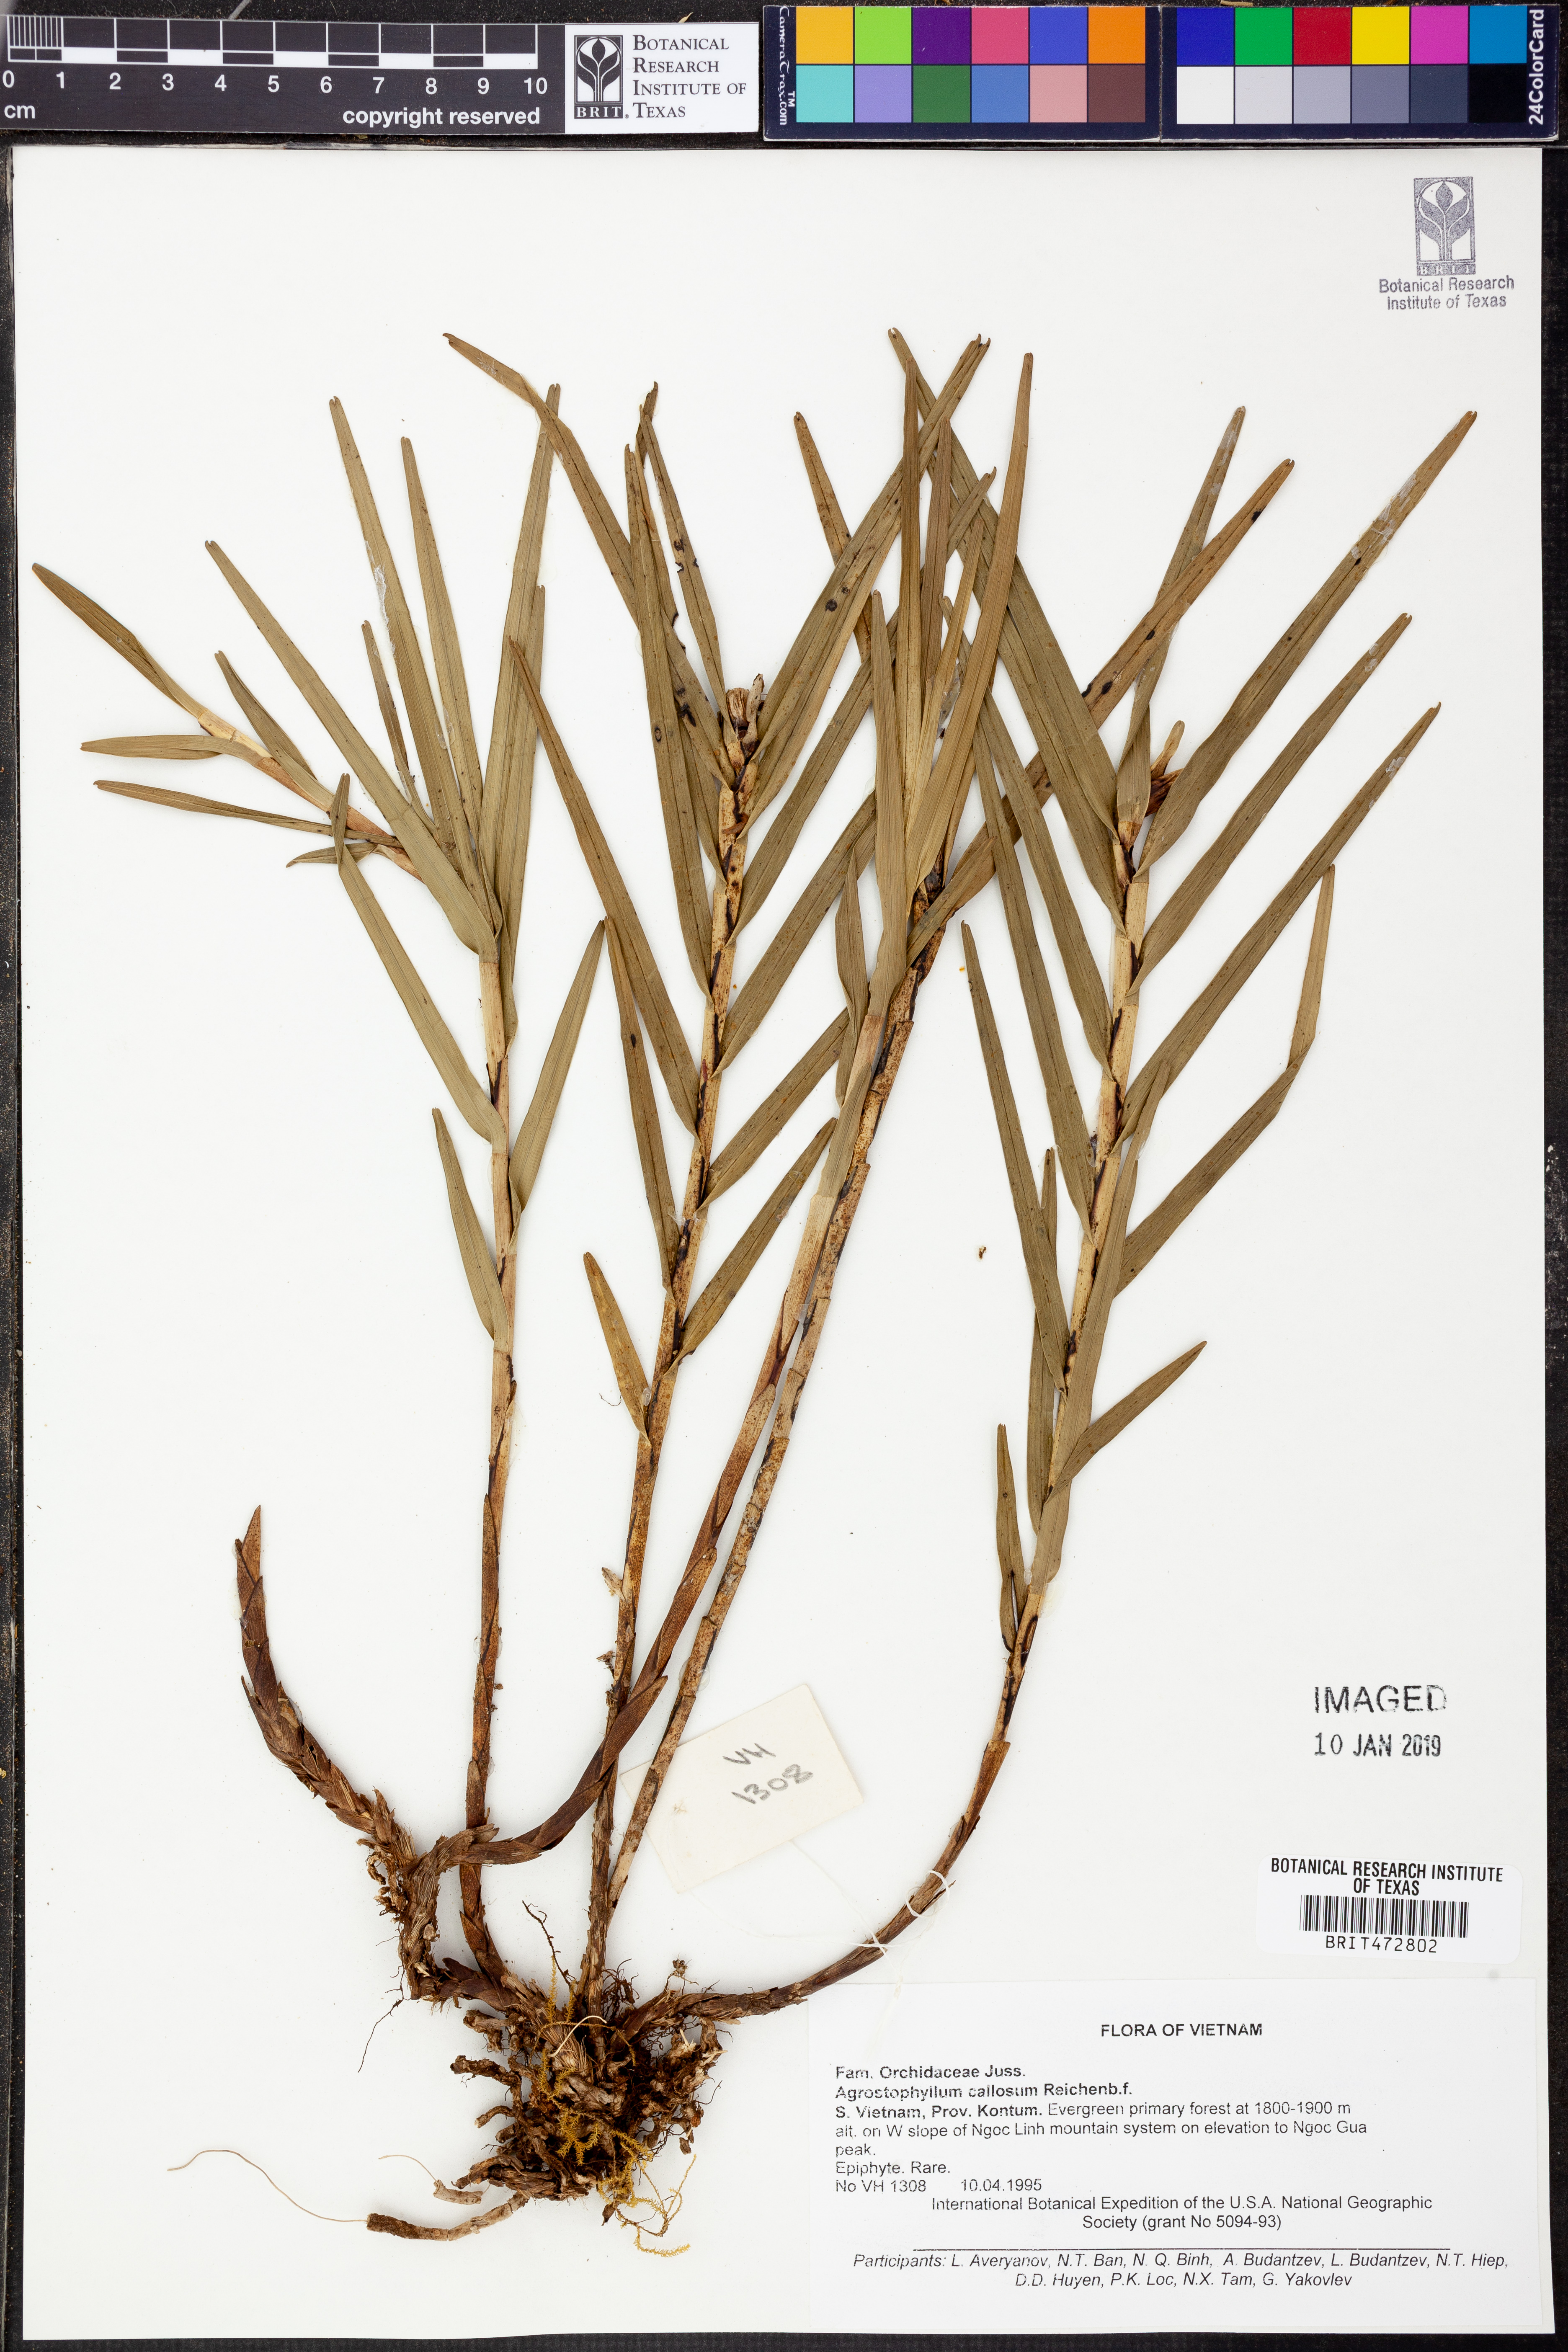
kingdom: Plantae
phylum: Tracheophyta
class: Liliopsida
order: Asparagales
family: Orchidaceae
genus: Agrostophyllum
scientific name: Agrostophyllum callosum
